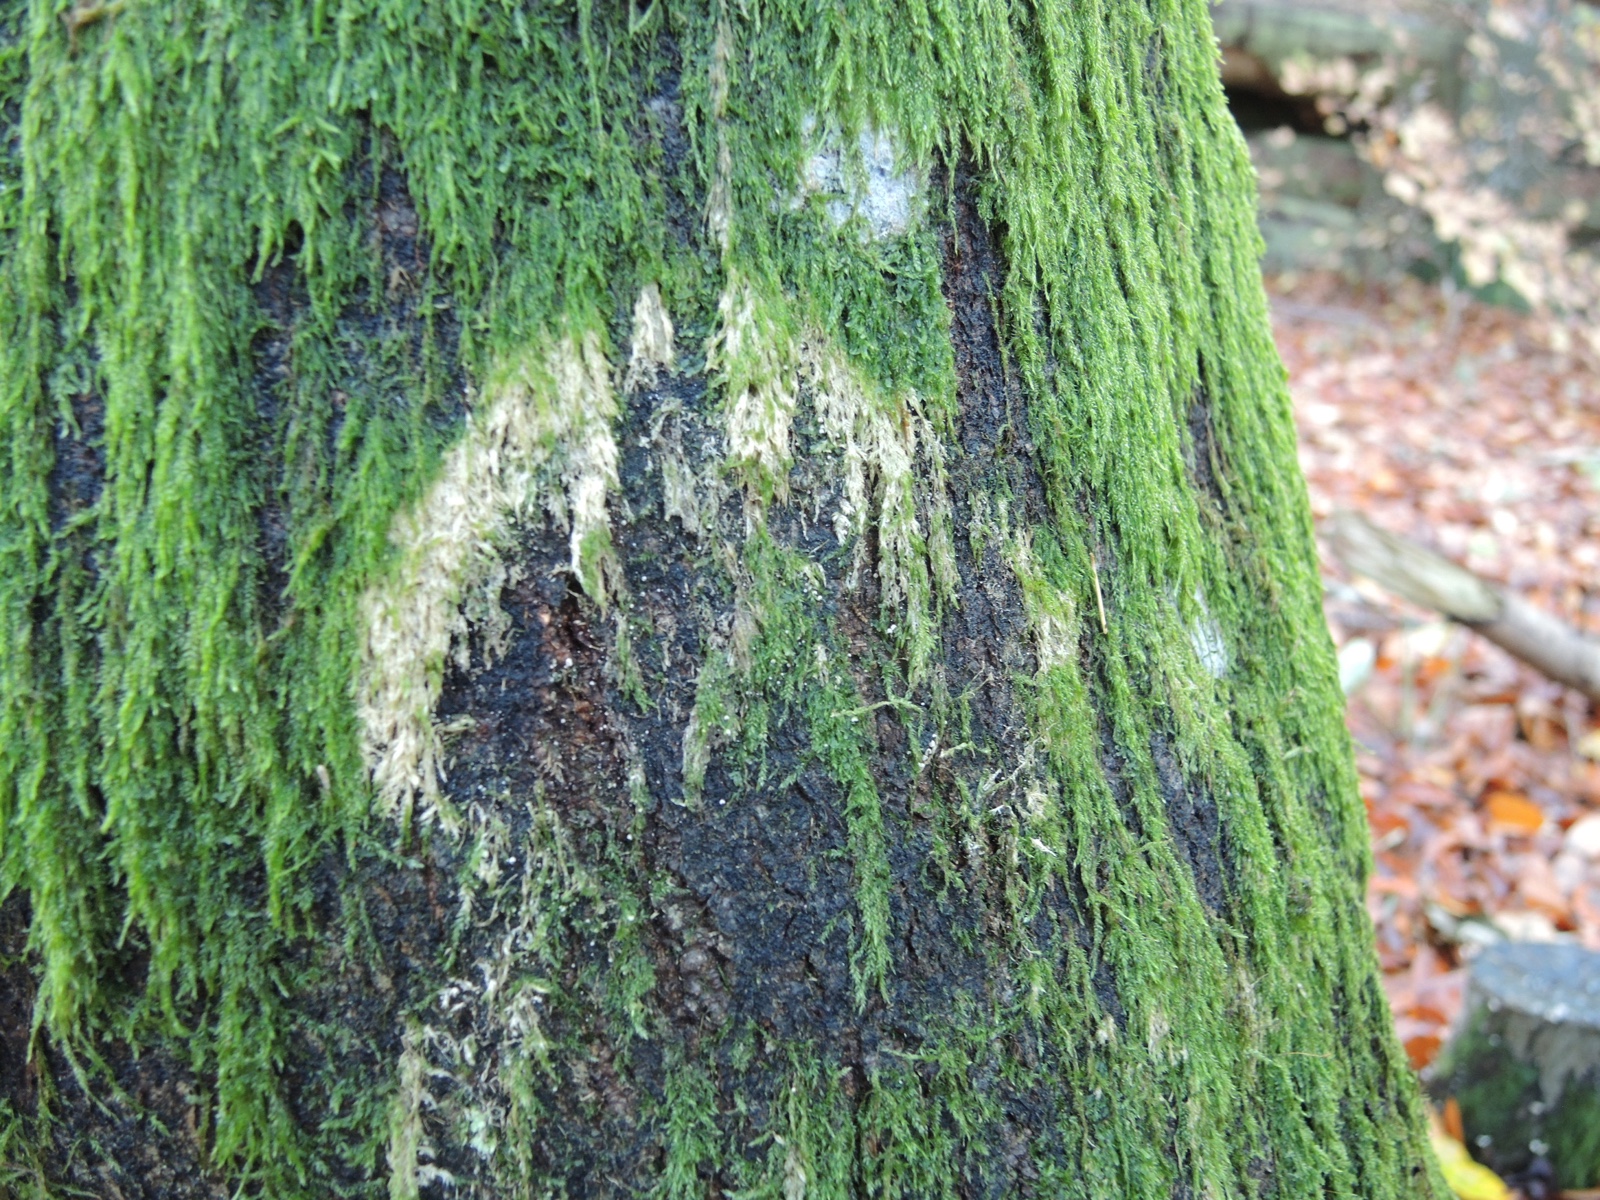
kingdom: Fungi
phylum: Basidiomycota
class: Agaricomycetes
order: Agaricales
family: Chromocyphellaceae
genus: Chromocyphella
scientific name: Chromocyphella muscicola
